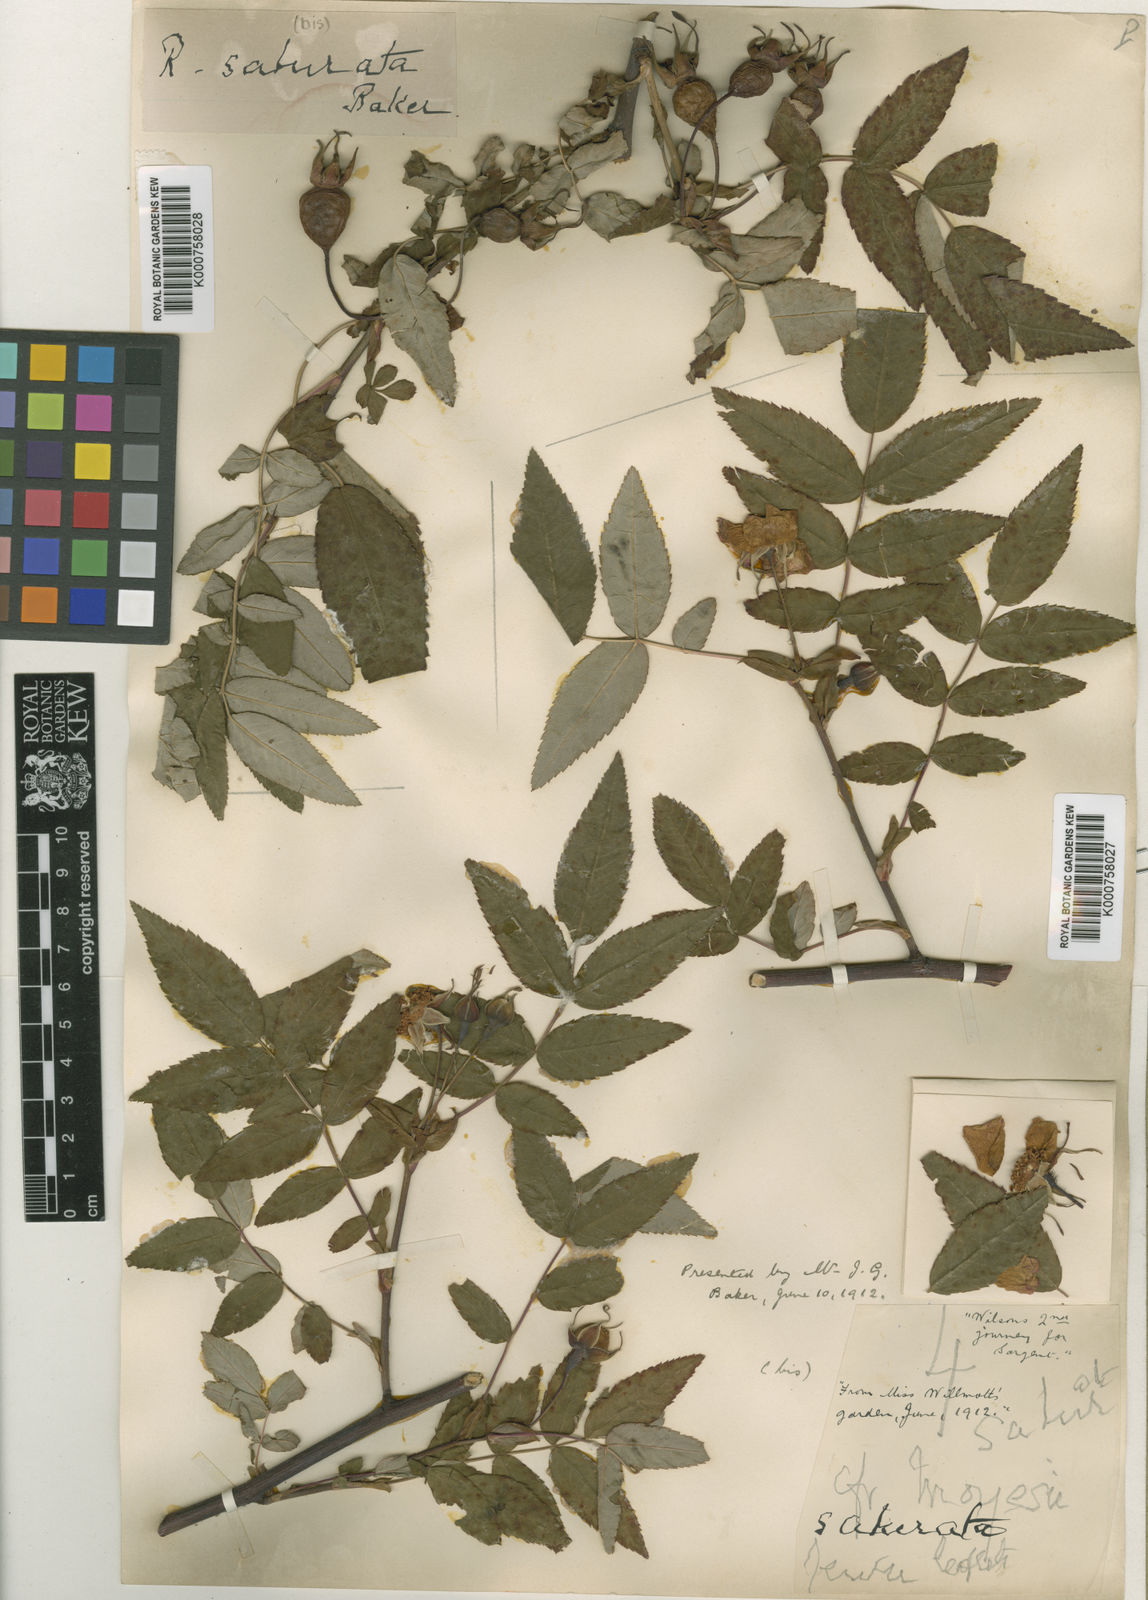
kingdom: Plantae
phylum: Tracheophyta
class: Magnoliopsida
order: Rosales
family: Rosaceae
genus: Rosa
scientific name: Rosa saturata
